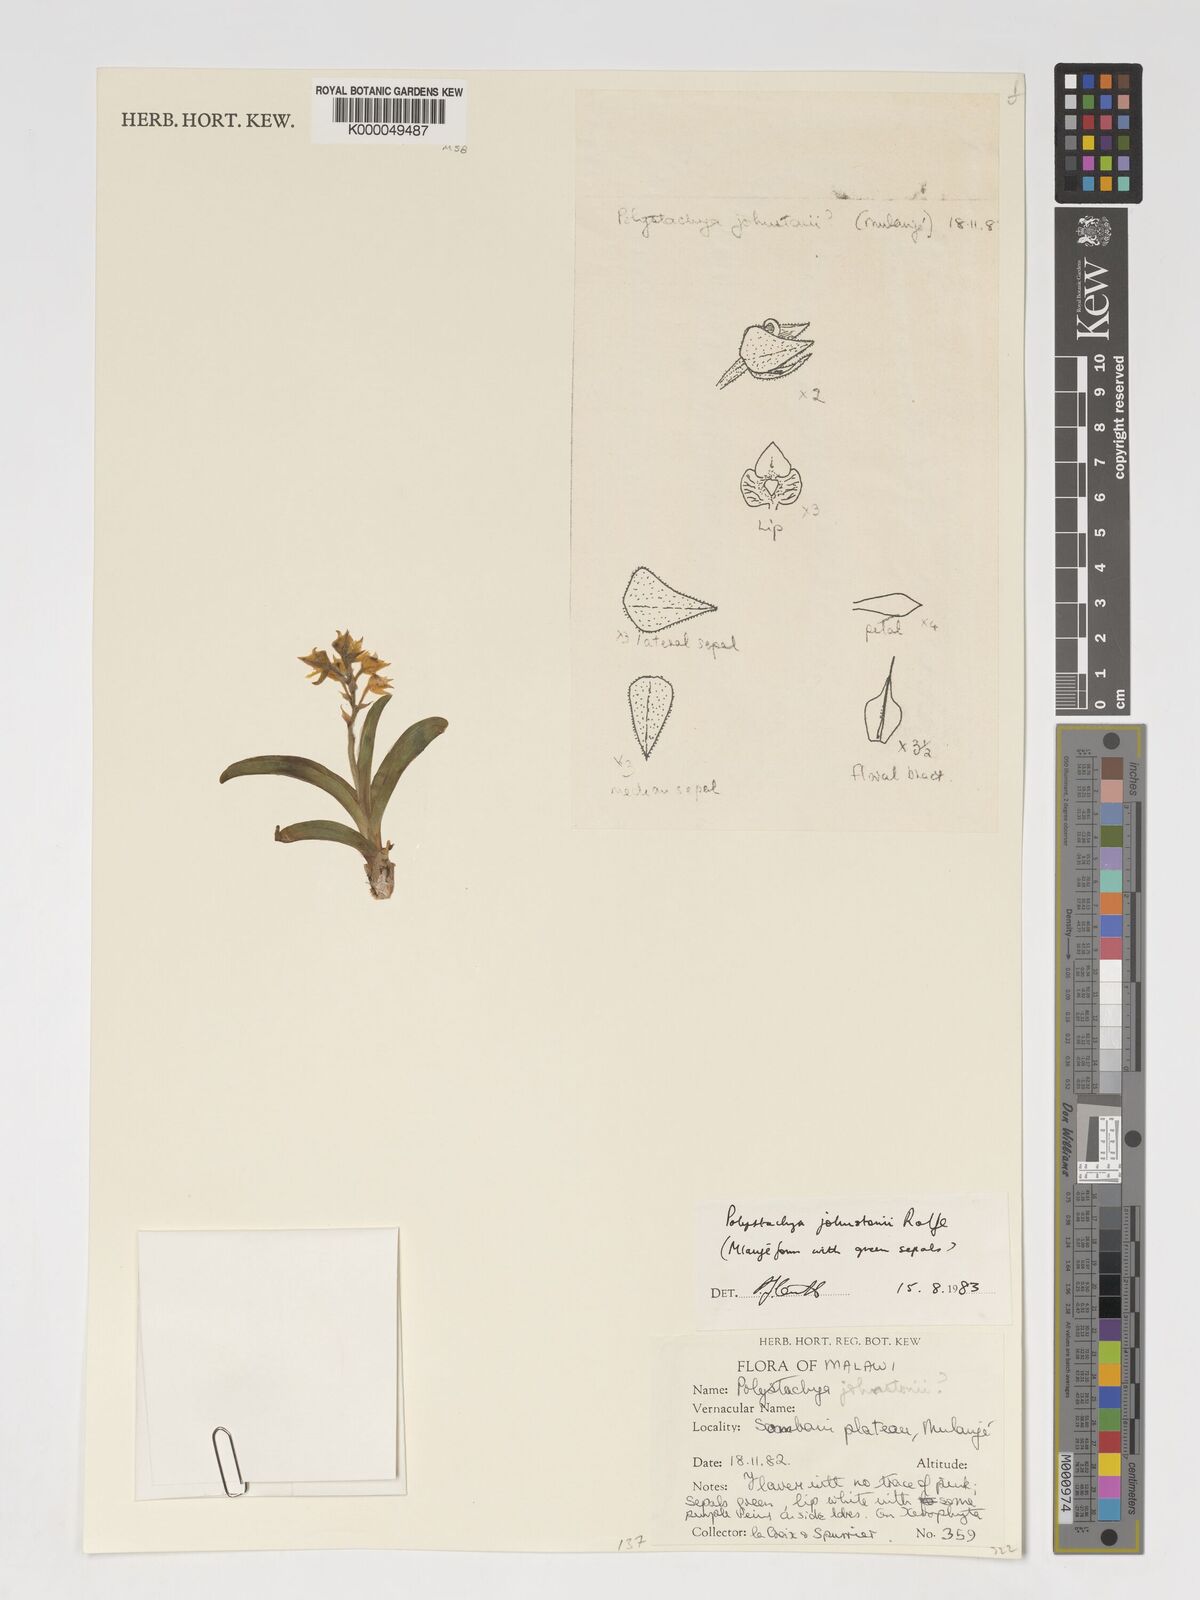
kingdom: Plantae
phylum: Tracheophyta
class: Liliopsida
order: Asparagales
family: Orchidaceae
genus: Polystachya
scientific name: Polystachya johnstonii
